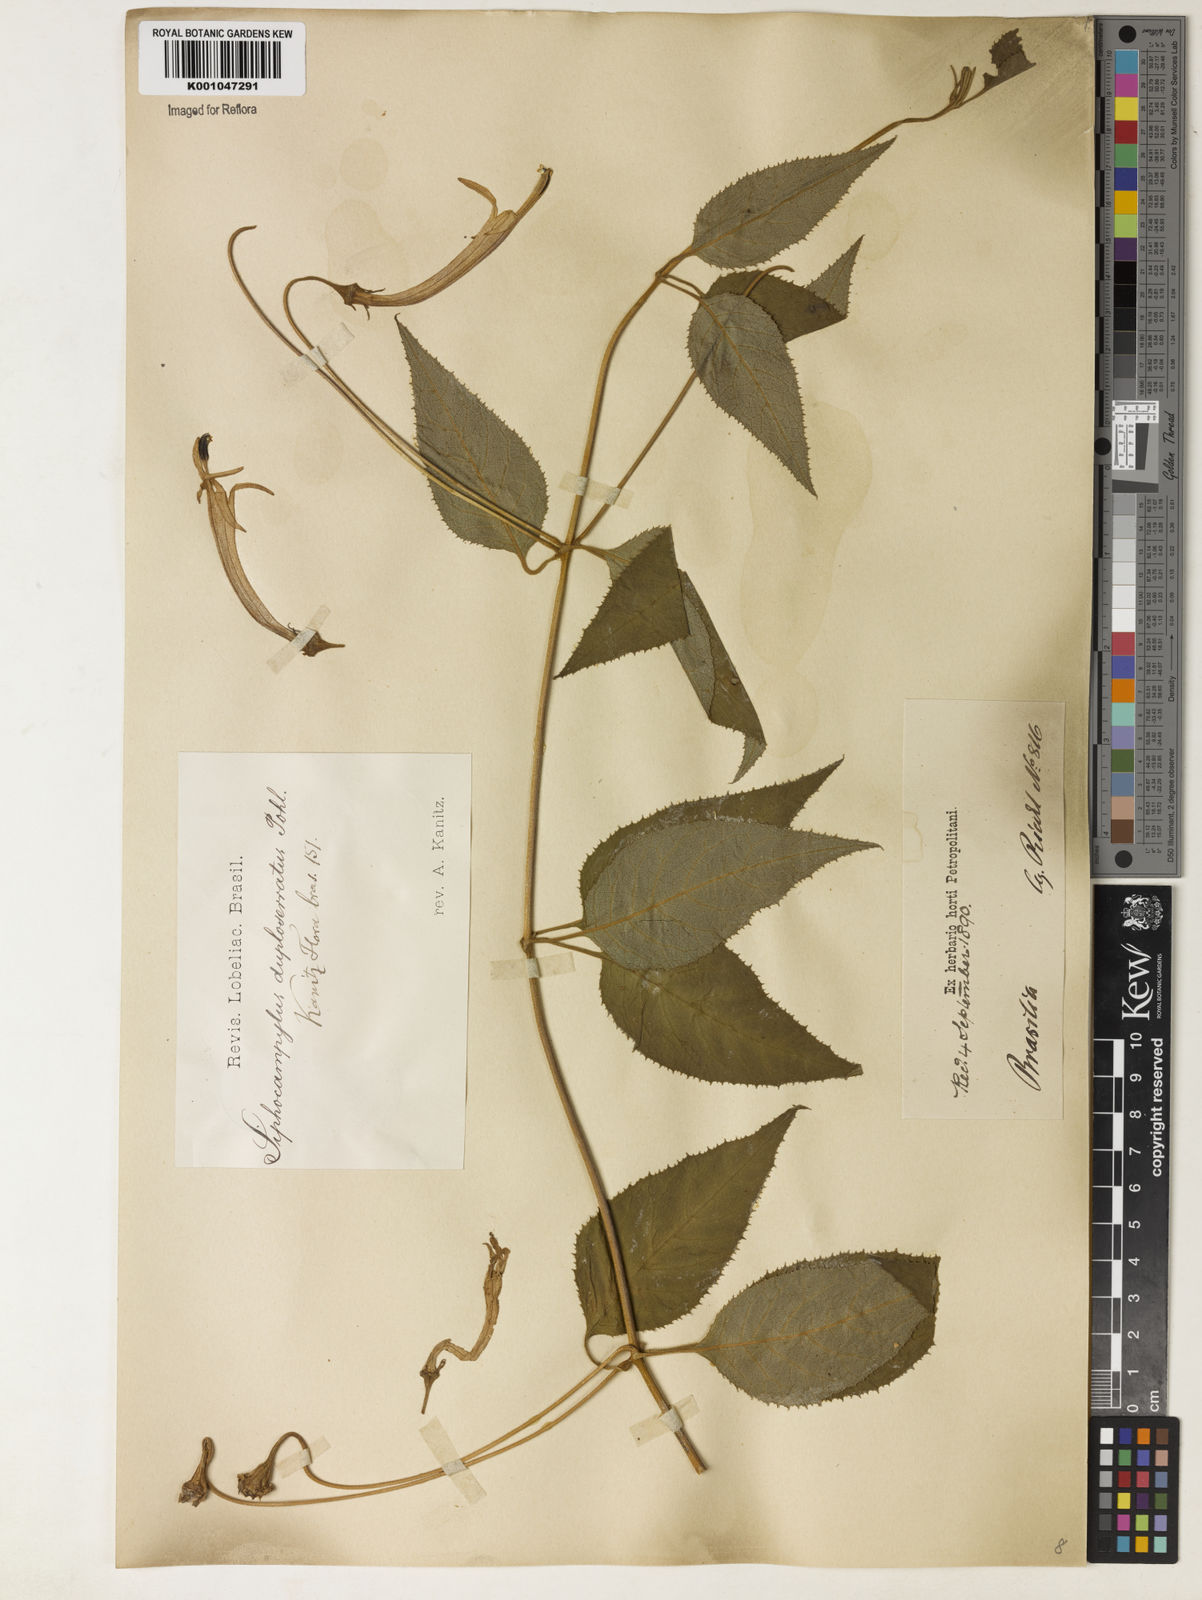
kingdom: Plantae
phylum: Tracheophyta
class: Magnoliopsida
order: Asterales
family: Campanulaceae
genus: Siphocampylus
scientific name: Siphocampylus duploserratus
